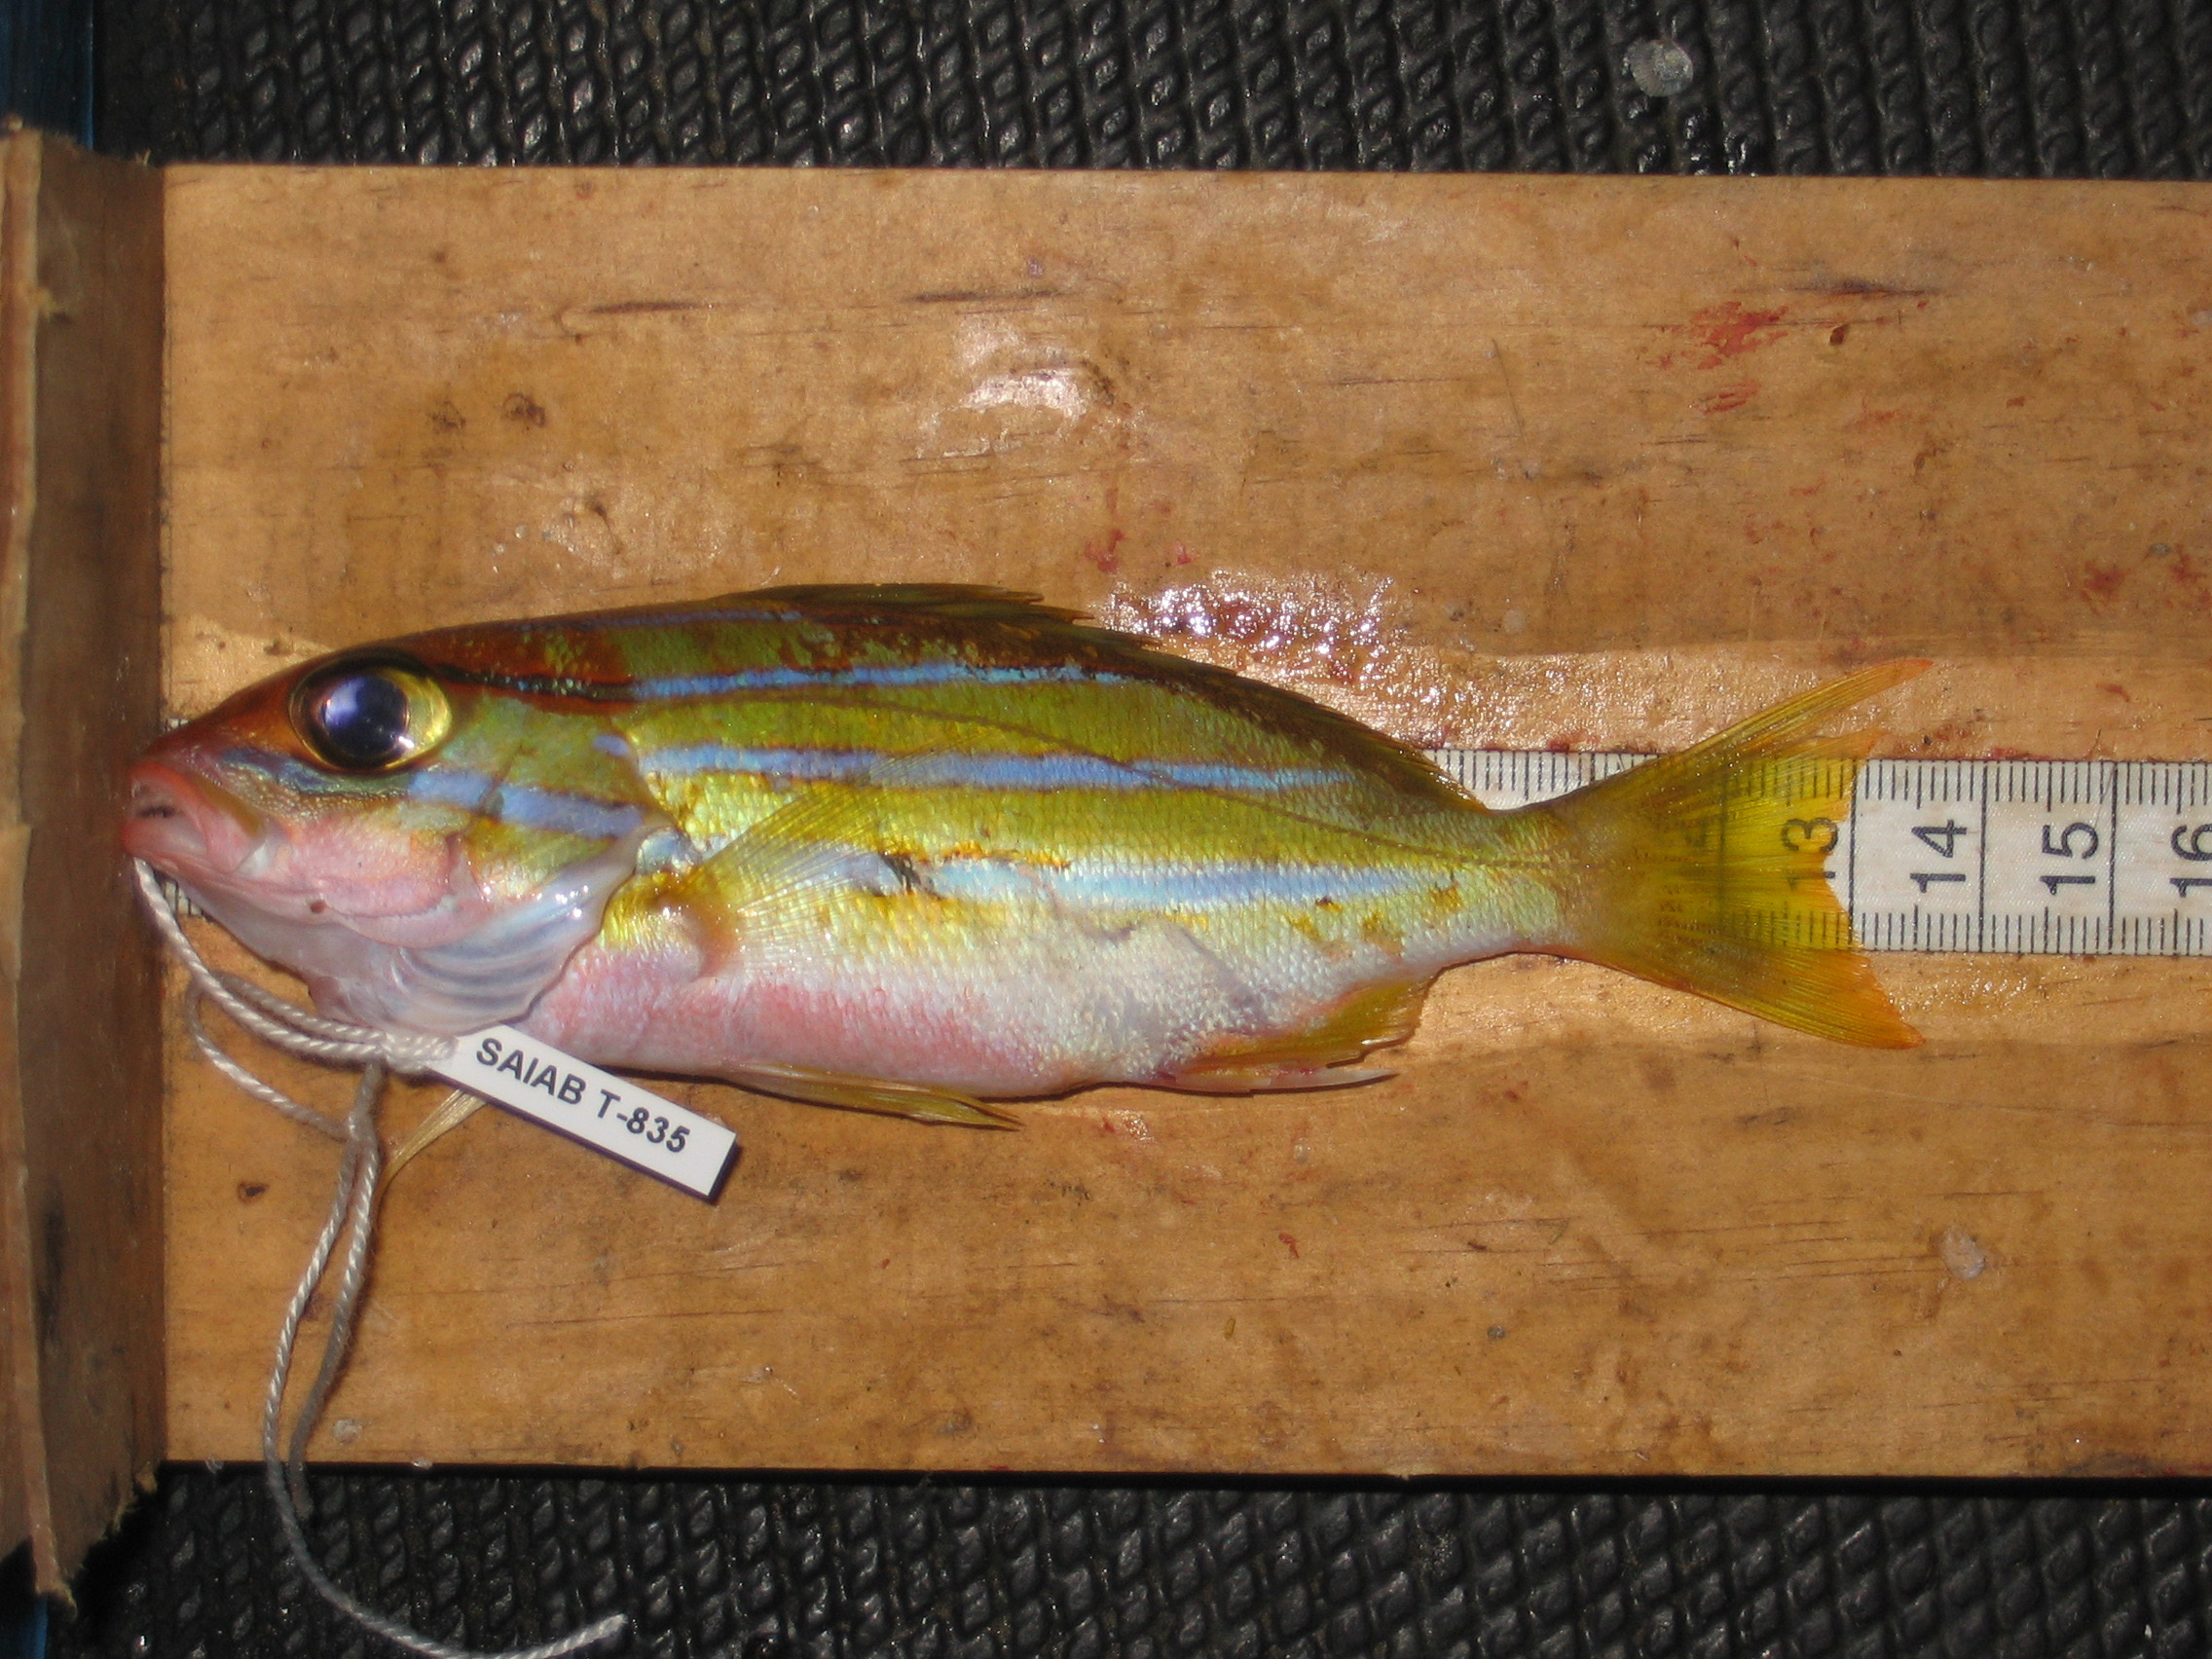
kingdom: Animalia
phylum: Chordata
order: Perciformes
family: Lutjanidae
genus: Lutjanus
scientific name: Lutjanus bengalensis
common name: Bengal snapper
